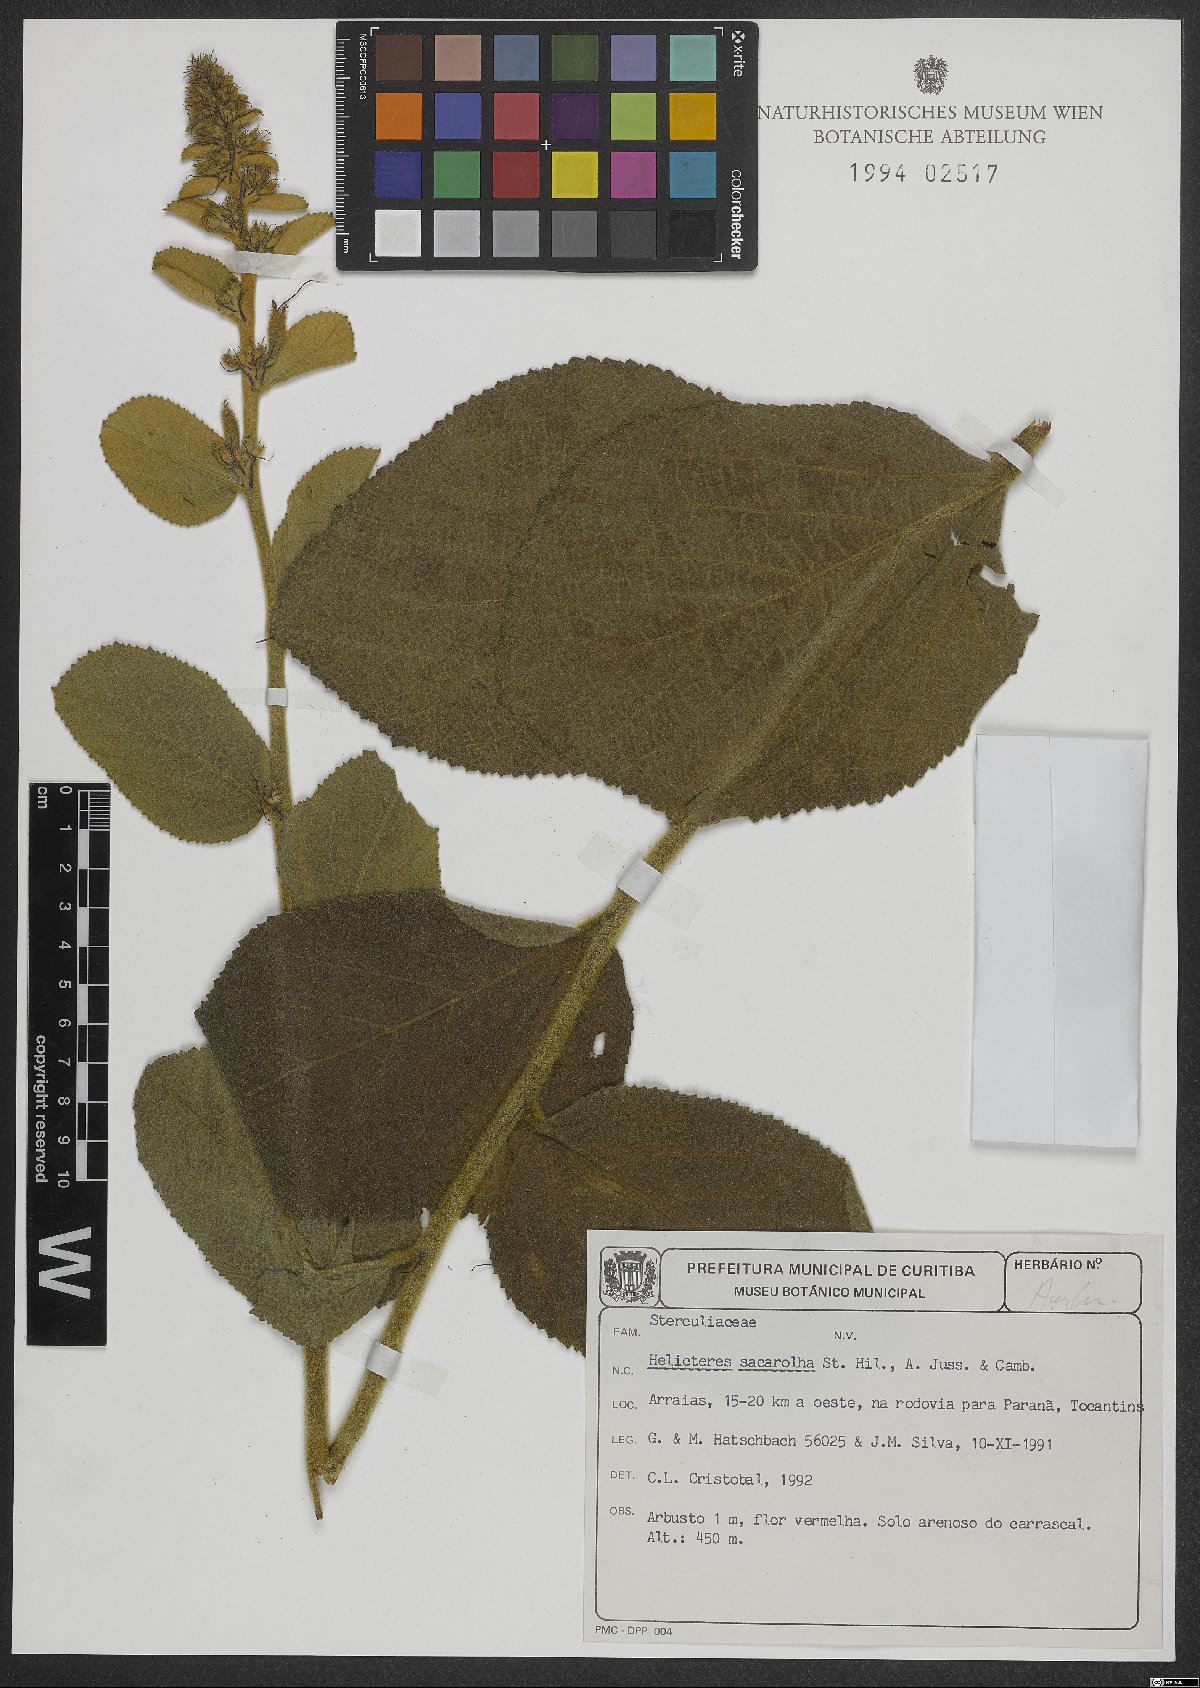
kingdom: Plantae
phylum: Tracheophyta
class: Magnoliopsida
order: Malvales
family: Malvaceae
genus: Helicteres
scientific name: Helicteres sacarolha
